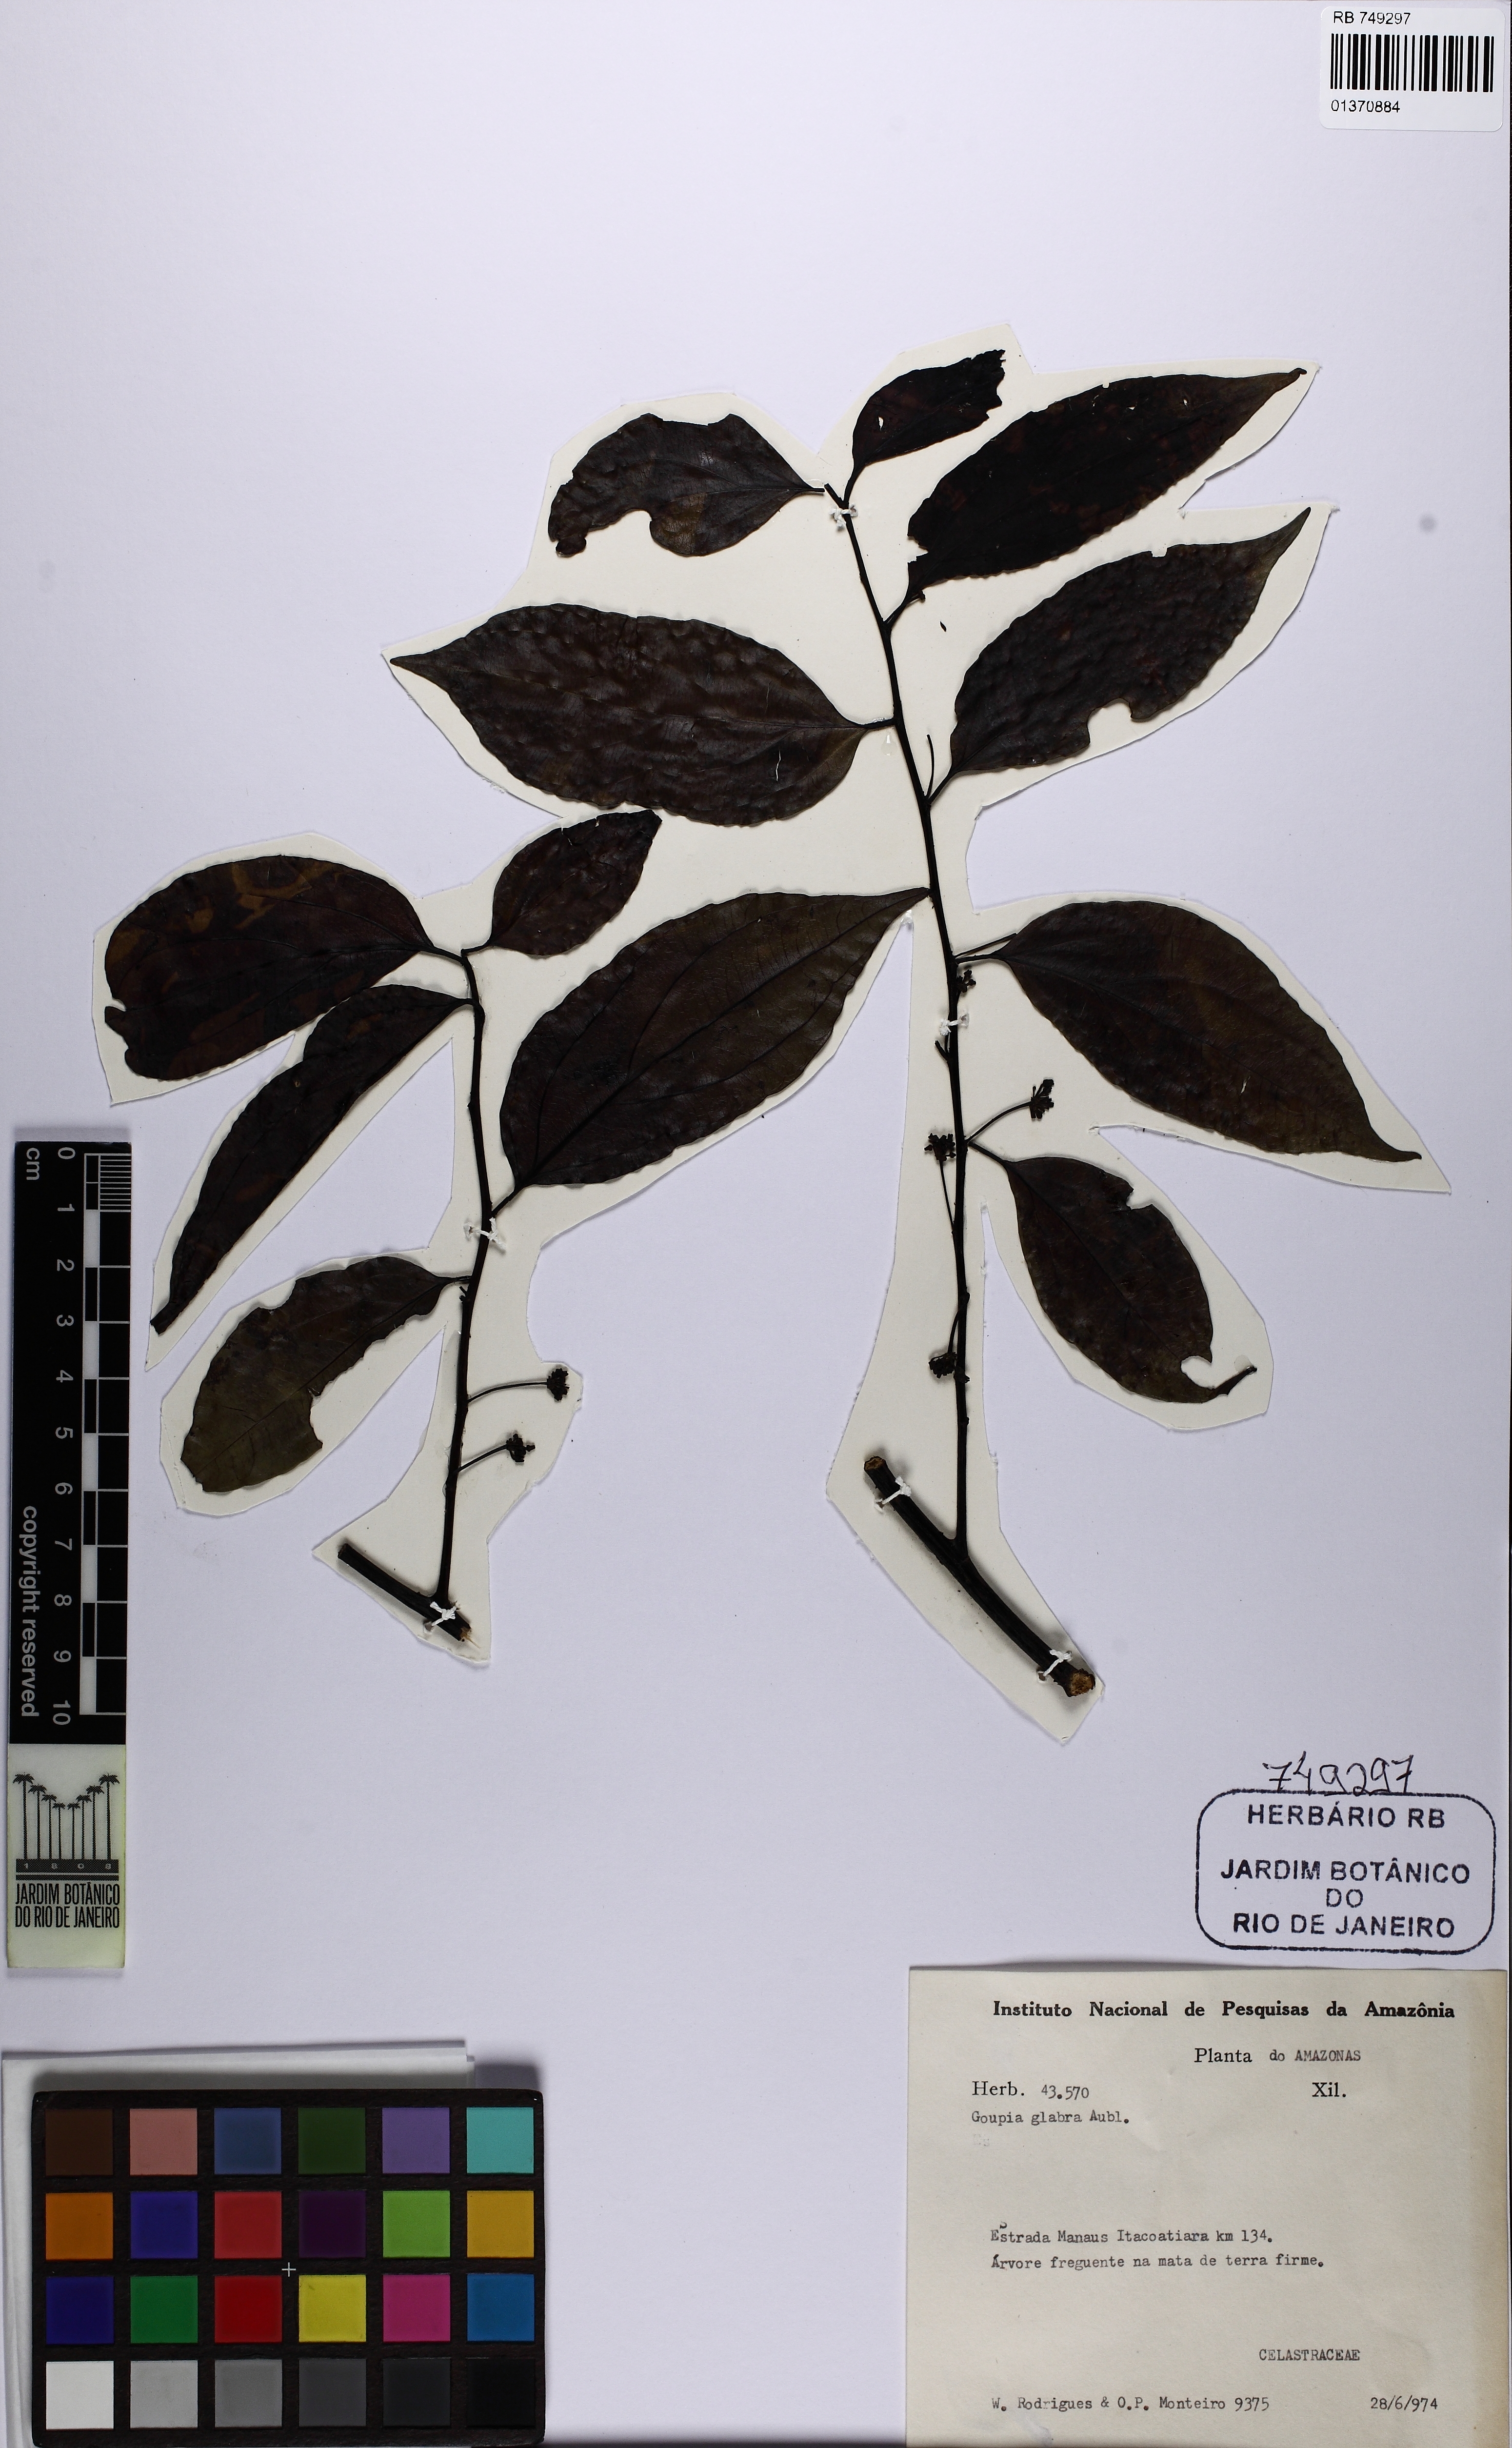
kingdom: Plantae
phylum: Tracheophyta
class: Magnoliopsida
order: Malpighiales
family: Goupiaceae
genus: Goupia
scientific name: Goupia glabra
